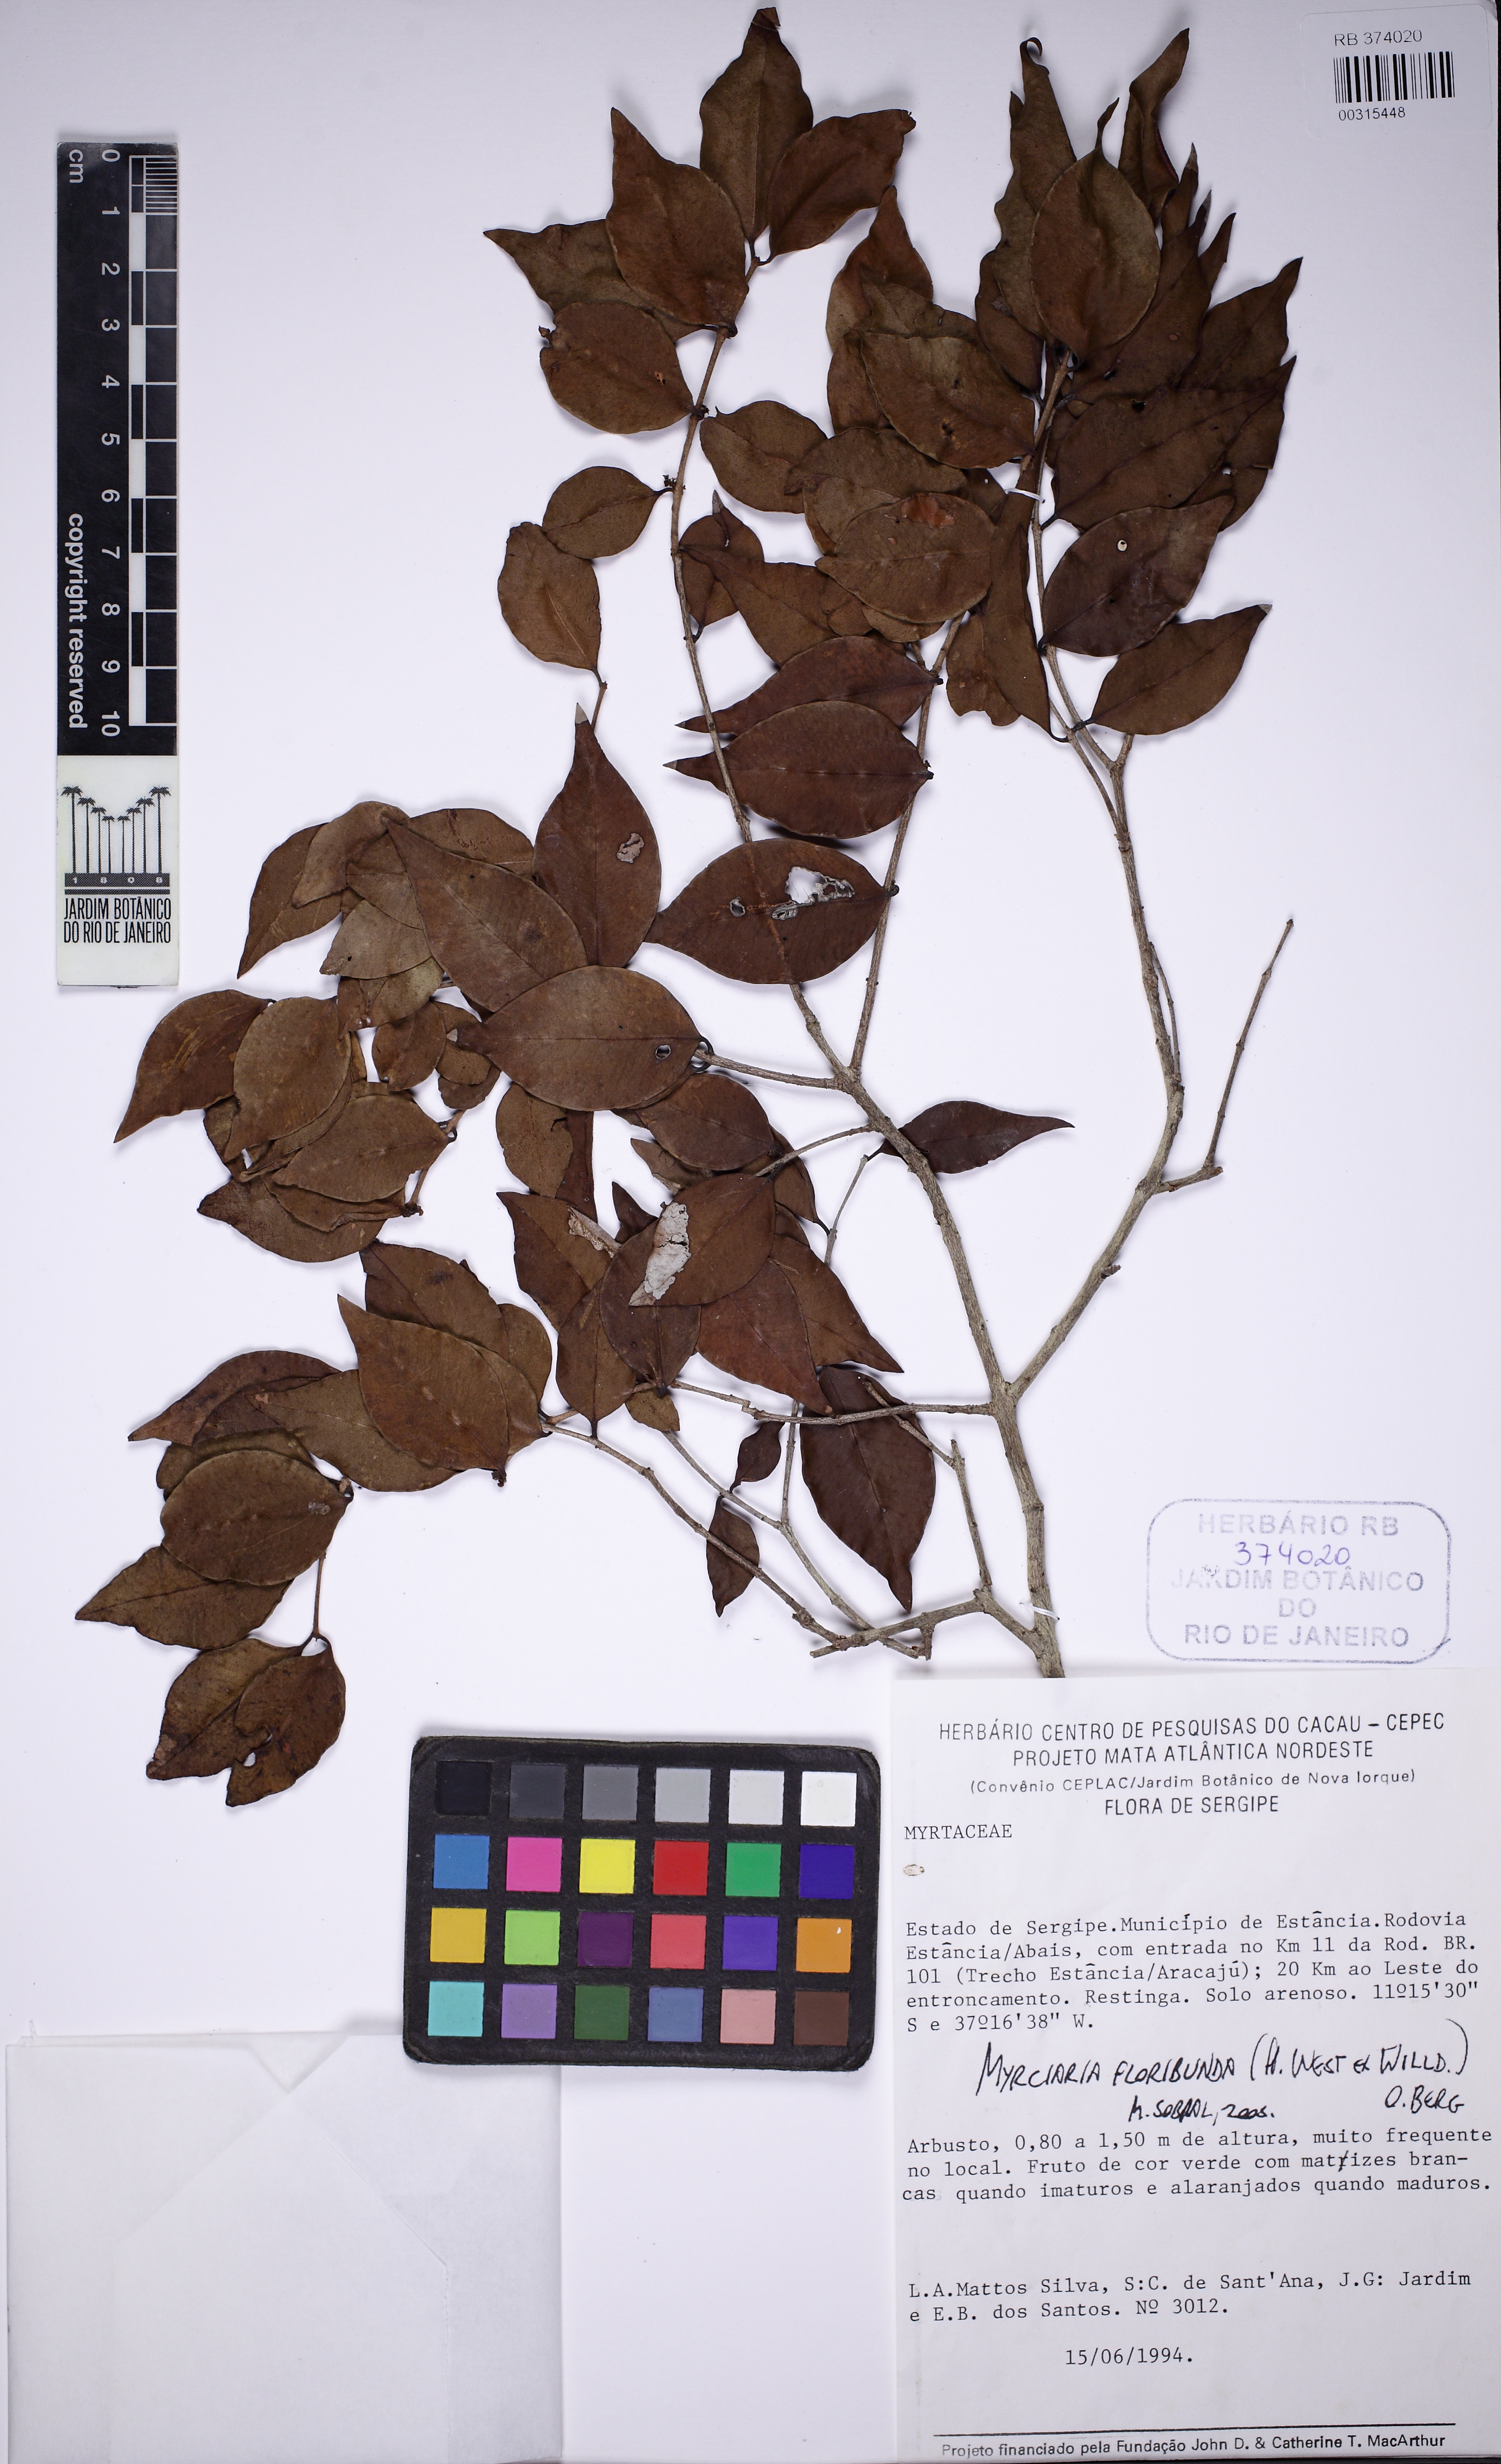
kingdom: Plantae
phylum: Tracheophyta
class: Magnoliopsida
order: Myrtales
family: Myrtaceae
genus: Myrciaria
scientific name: Myrciaria floribunda
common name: Guavaberry
